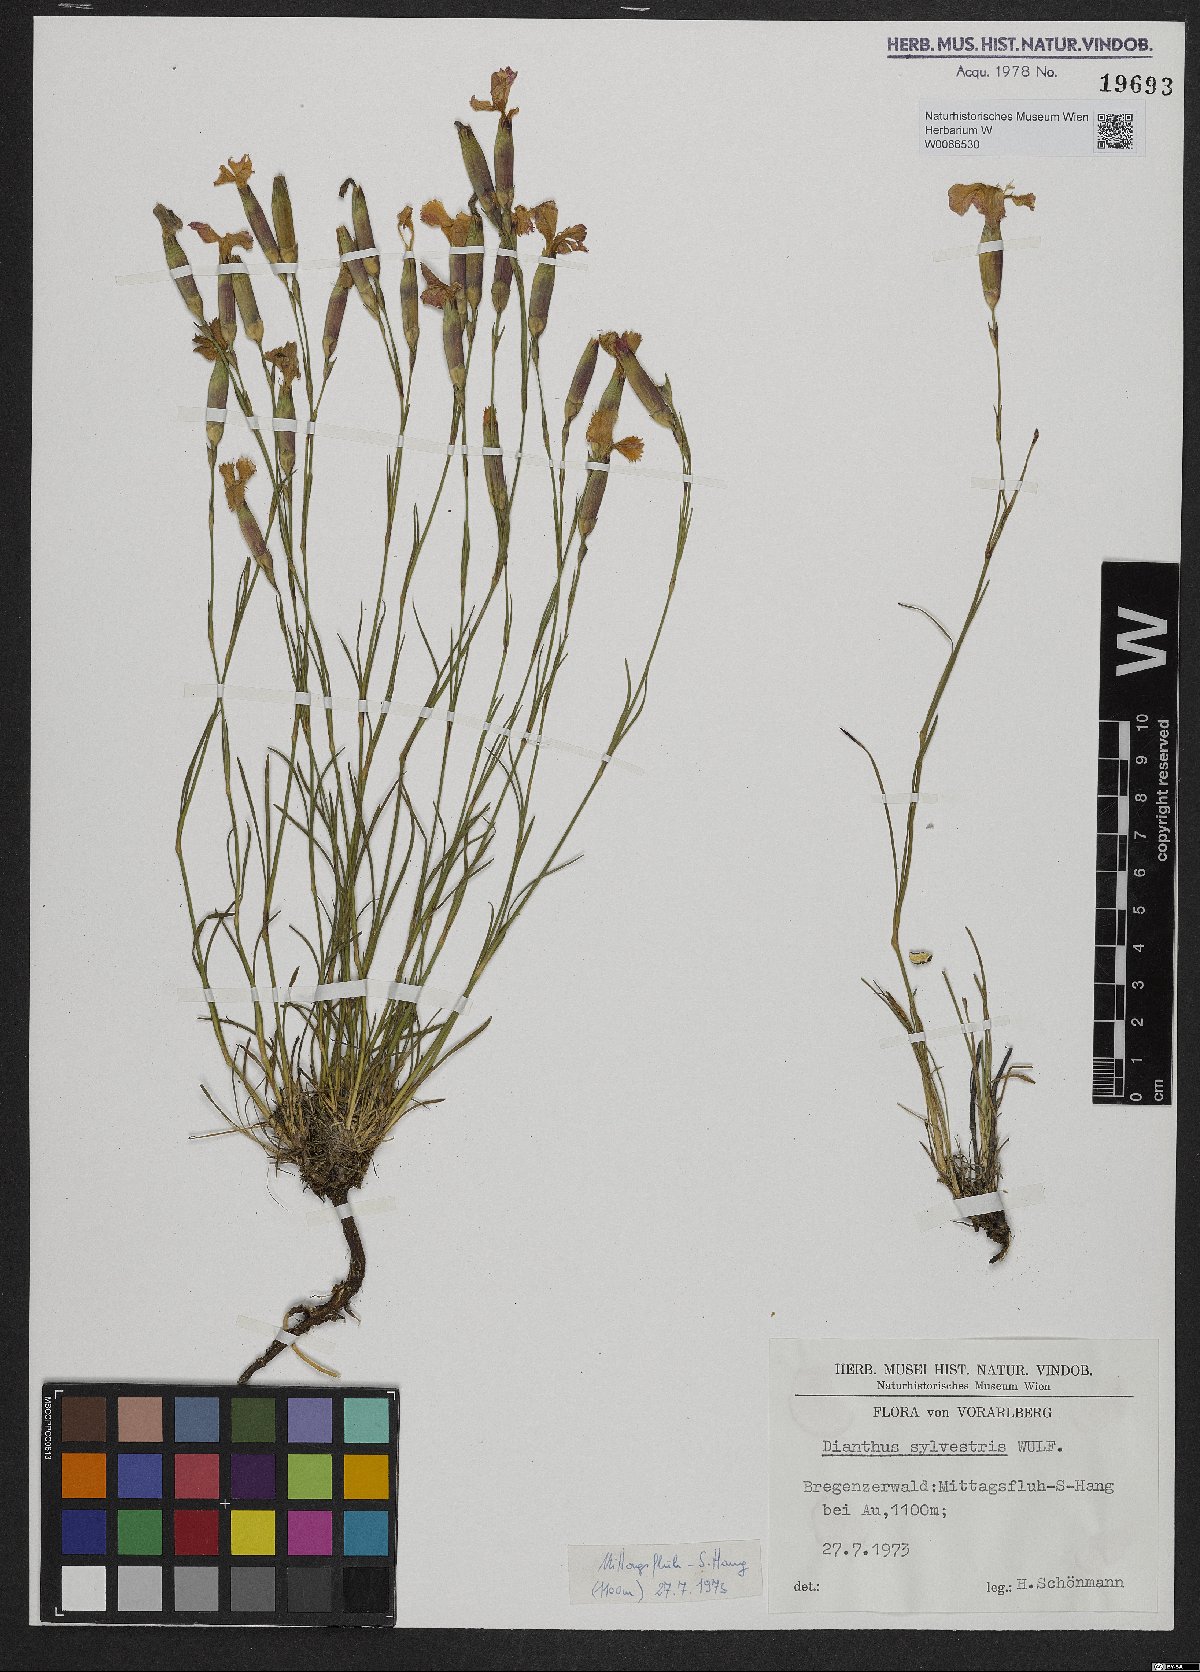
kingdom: Plantae
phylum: Tracheophyta
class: Magnoliopsida
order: Caryophyllales
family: Caryophyllaceae
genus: Dianthus
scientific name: Dianthus sylvestris
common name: Wood pink
